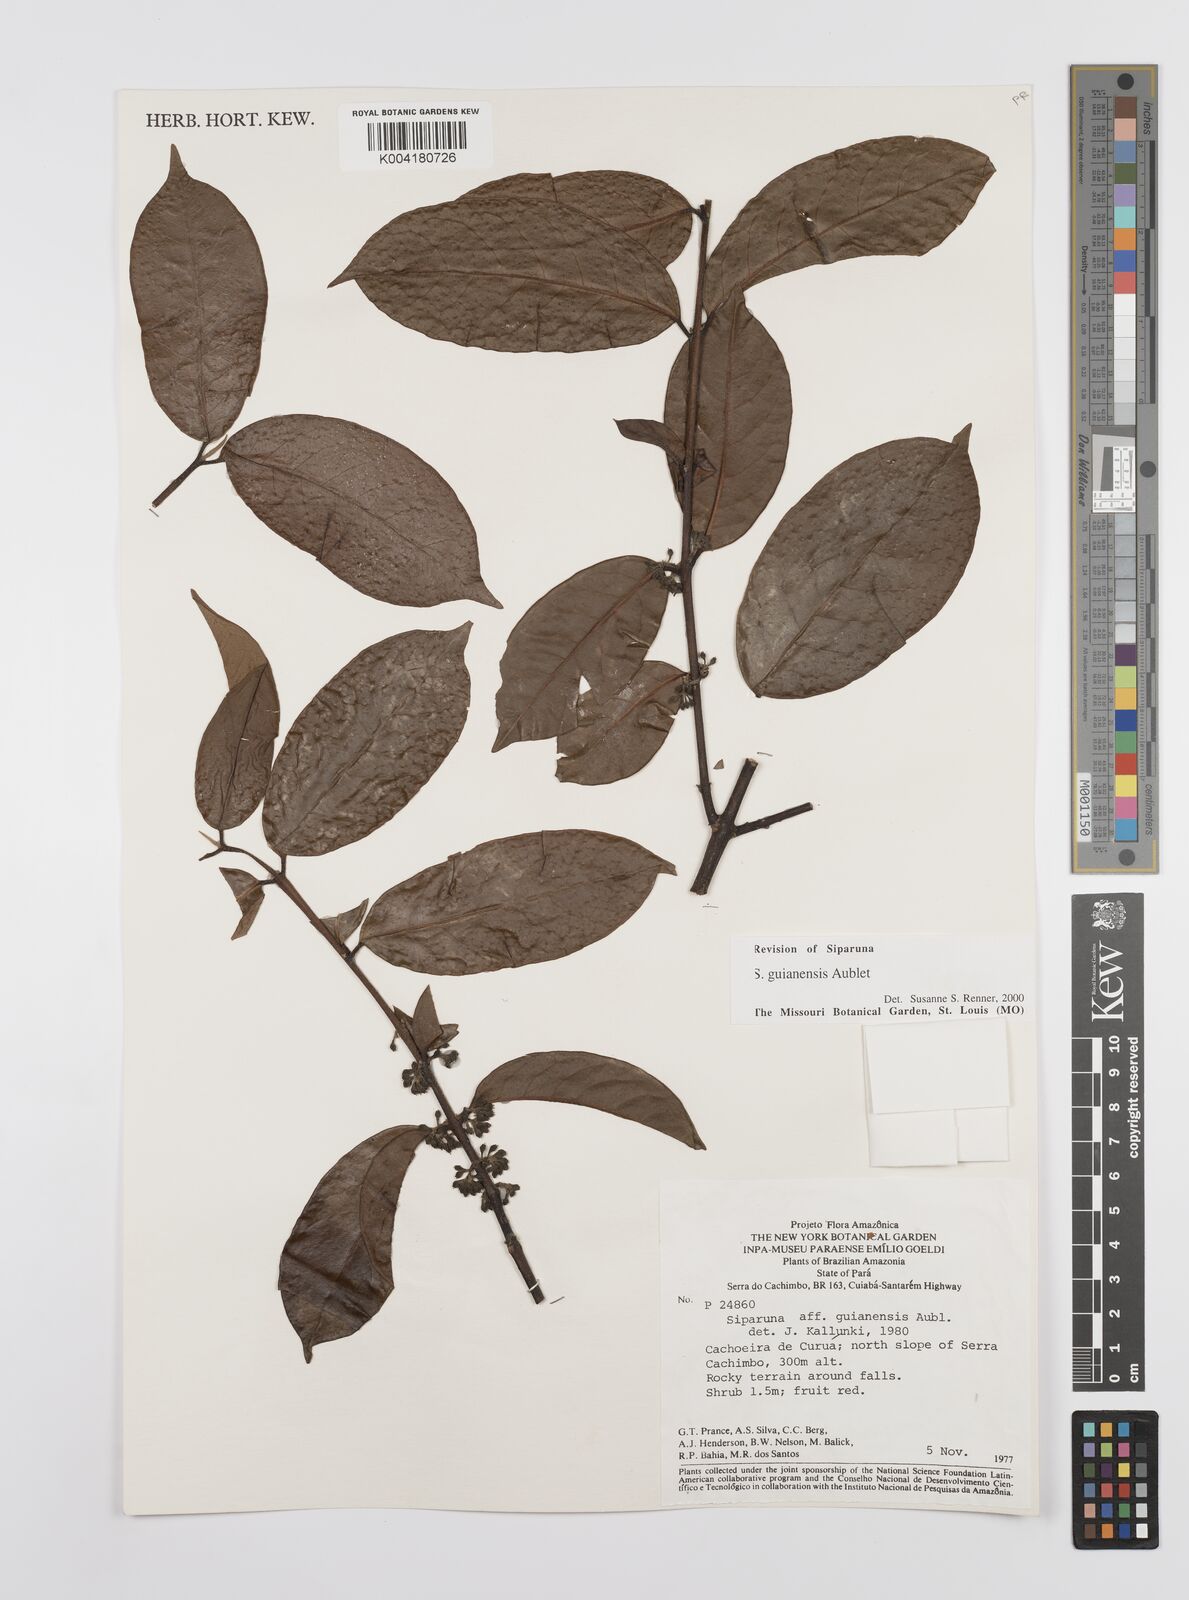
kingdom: Plantae
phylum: Tracheophyta
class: Magnoliopsida
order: Laurales
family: Siparunaceae
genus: Siparuna
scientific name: Siparuna guianensis
